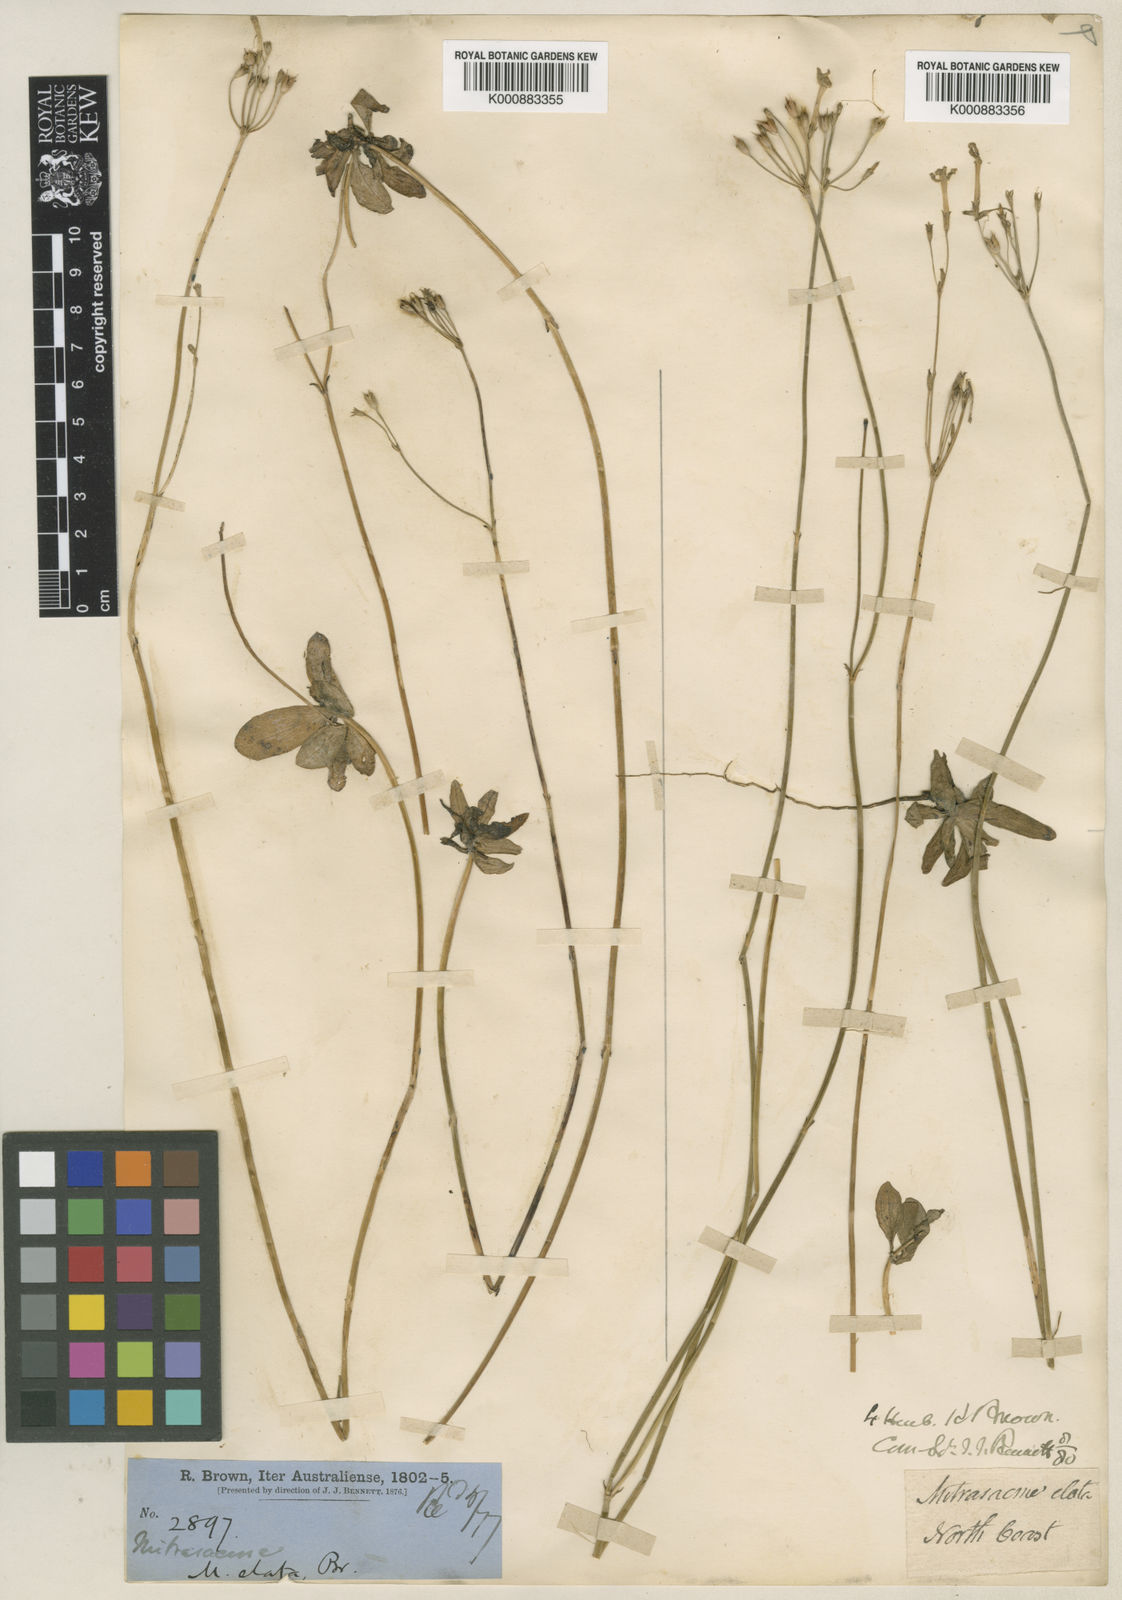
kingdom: Plantae
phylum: Tracheophyta
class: Magnoliopsida
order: Gentianales
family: Loganiaceae
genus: Mitrasacme
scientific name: Mitrasacme elata
